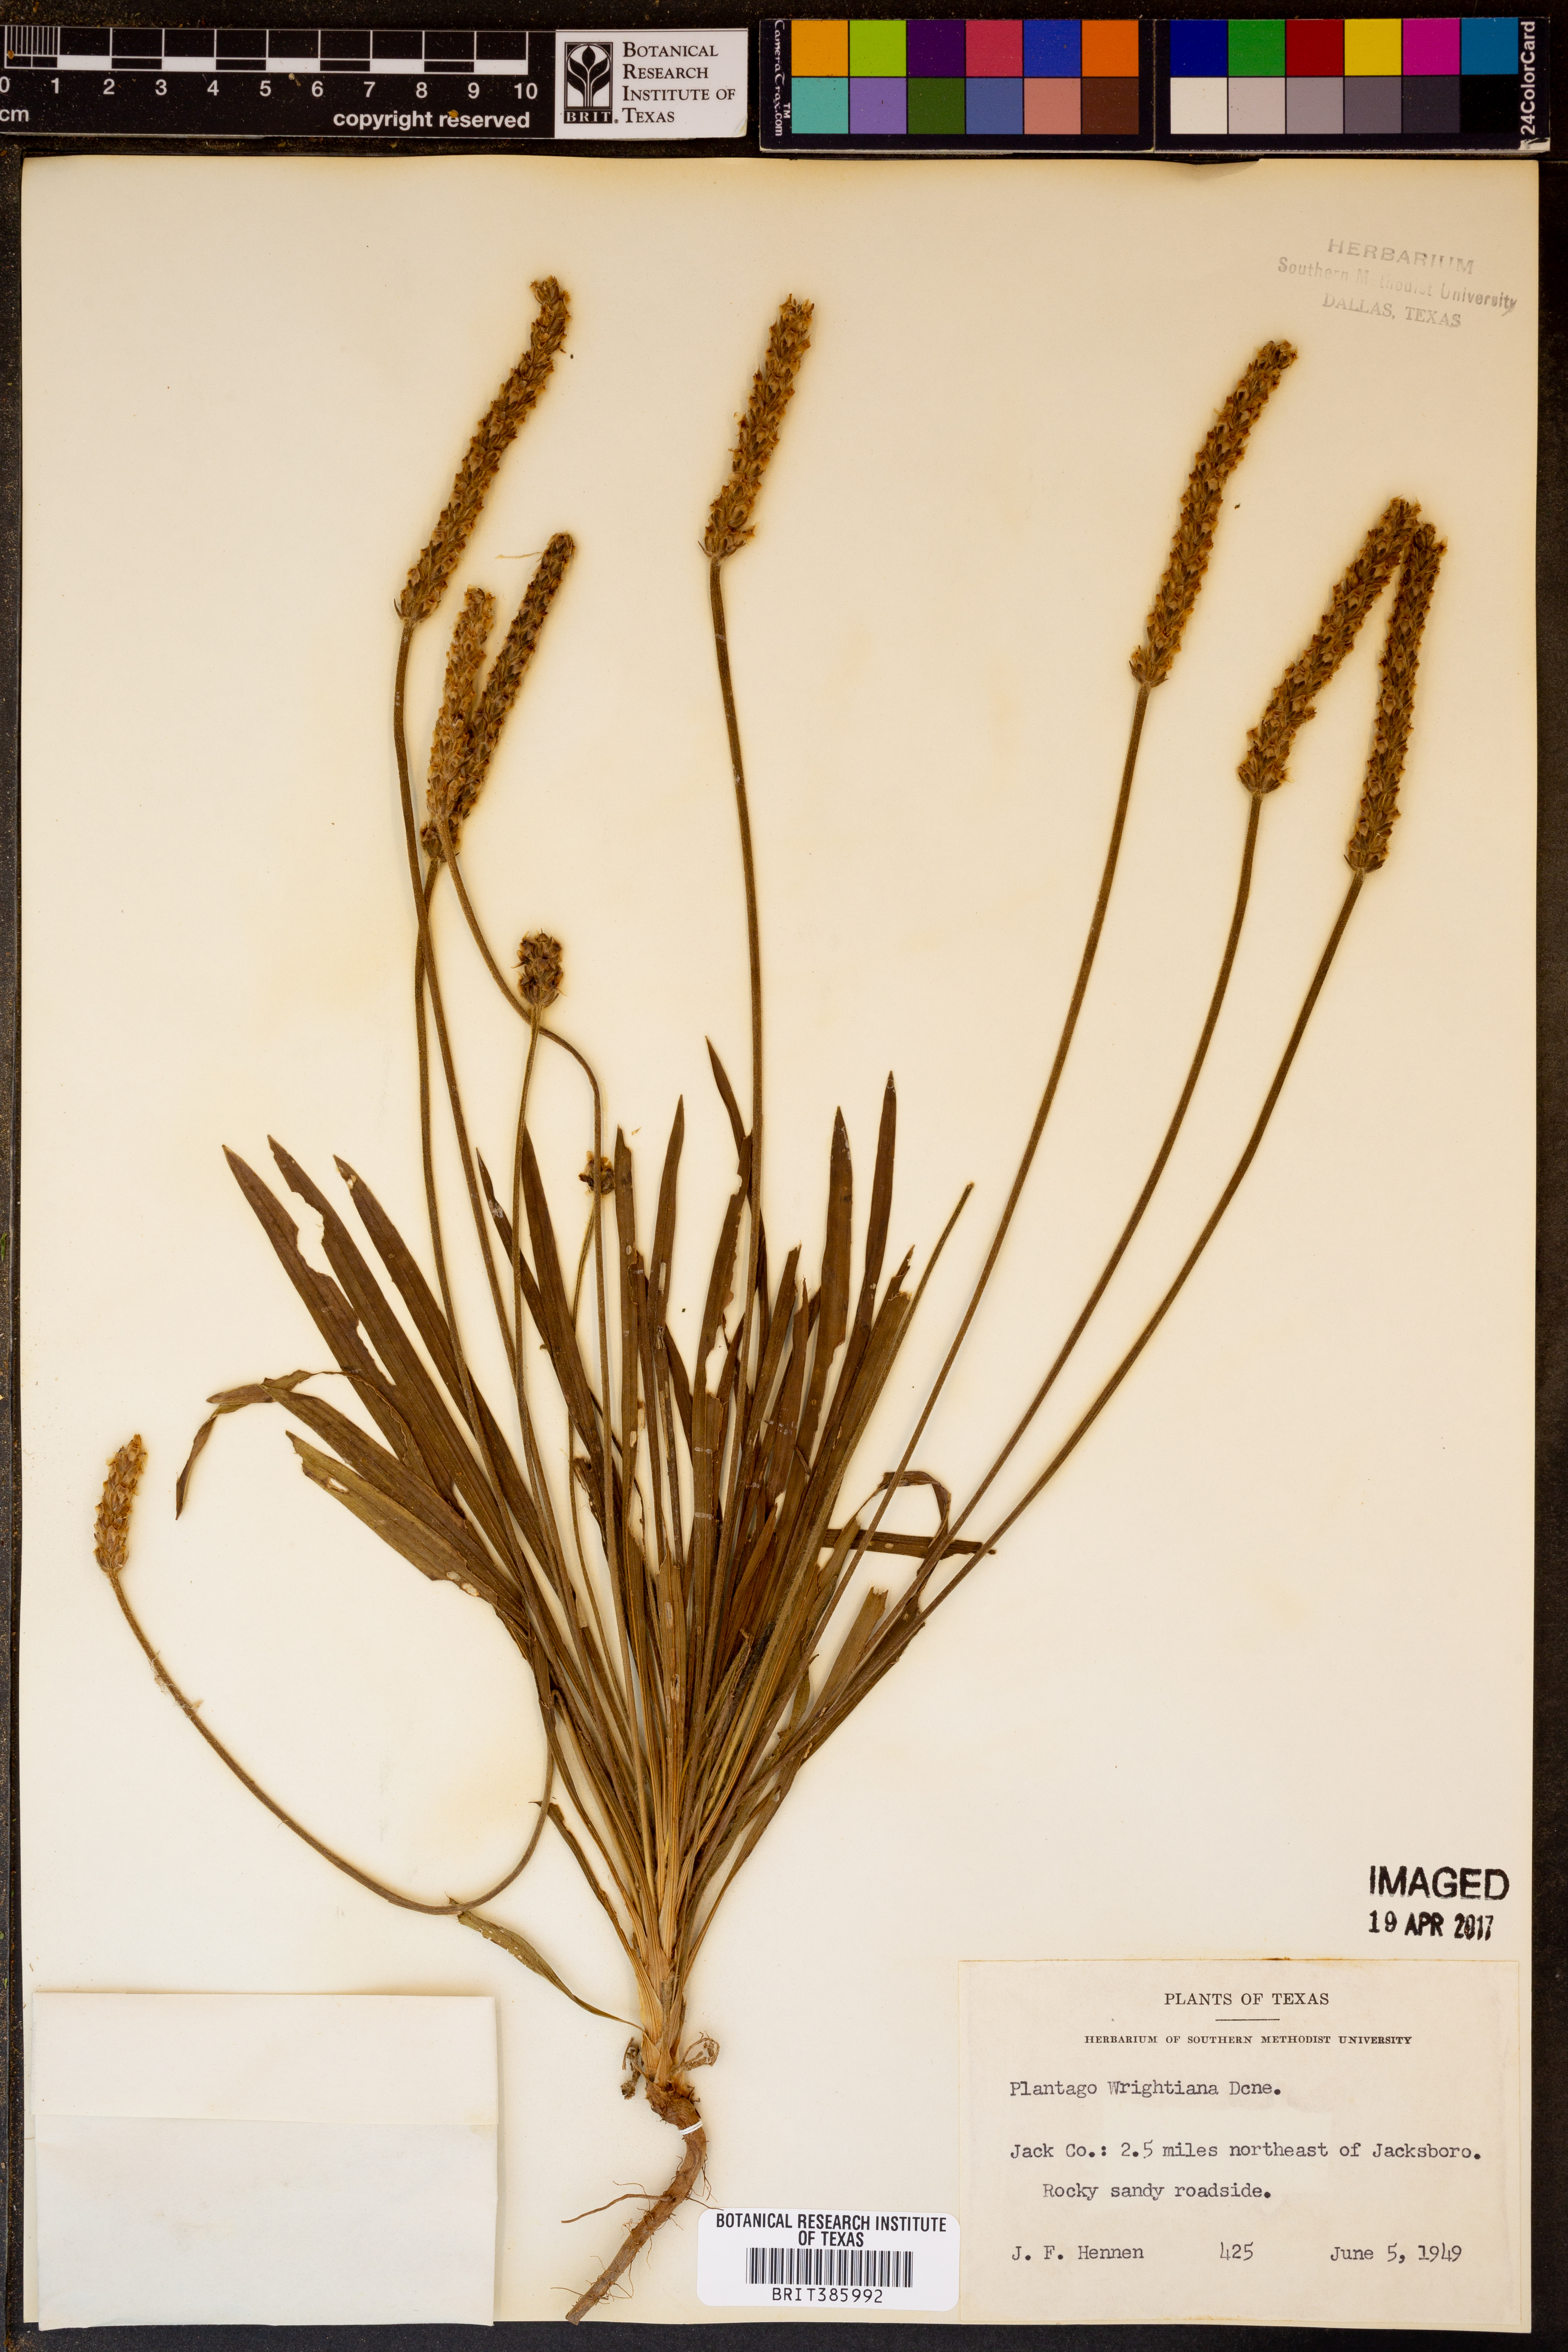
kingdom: Plantae
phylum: Tracheophyta
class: Magnoliopsida
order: Lamiales
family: Plantaginaceae
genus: Plantago
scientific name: Plantago wrightiana
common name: Wright's plantain
